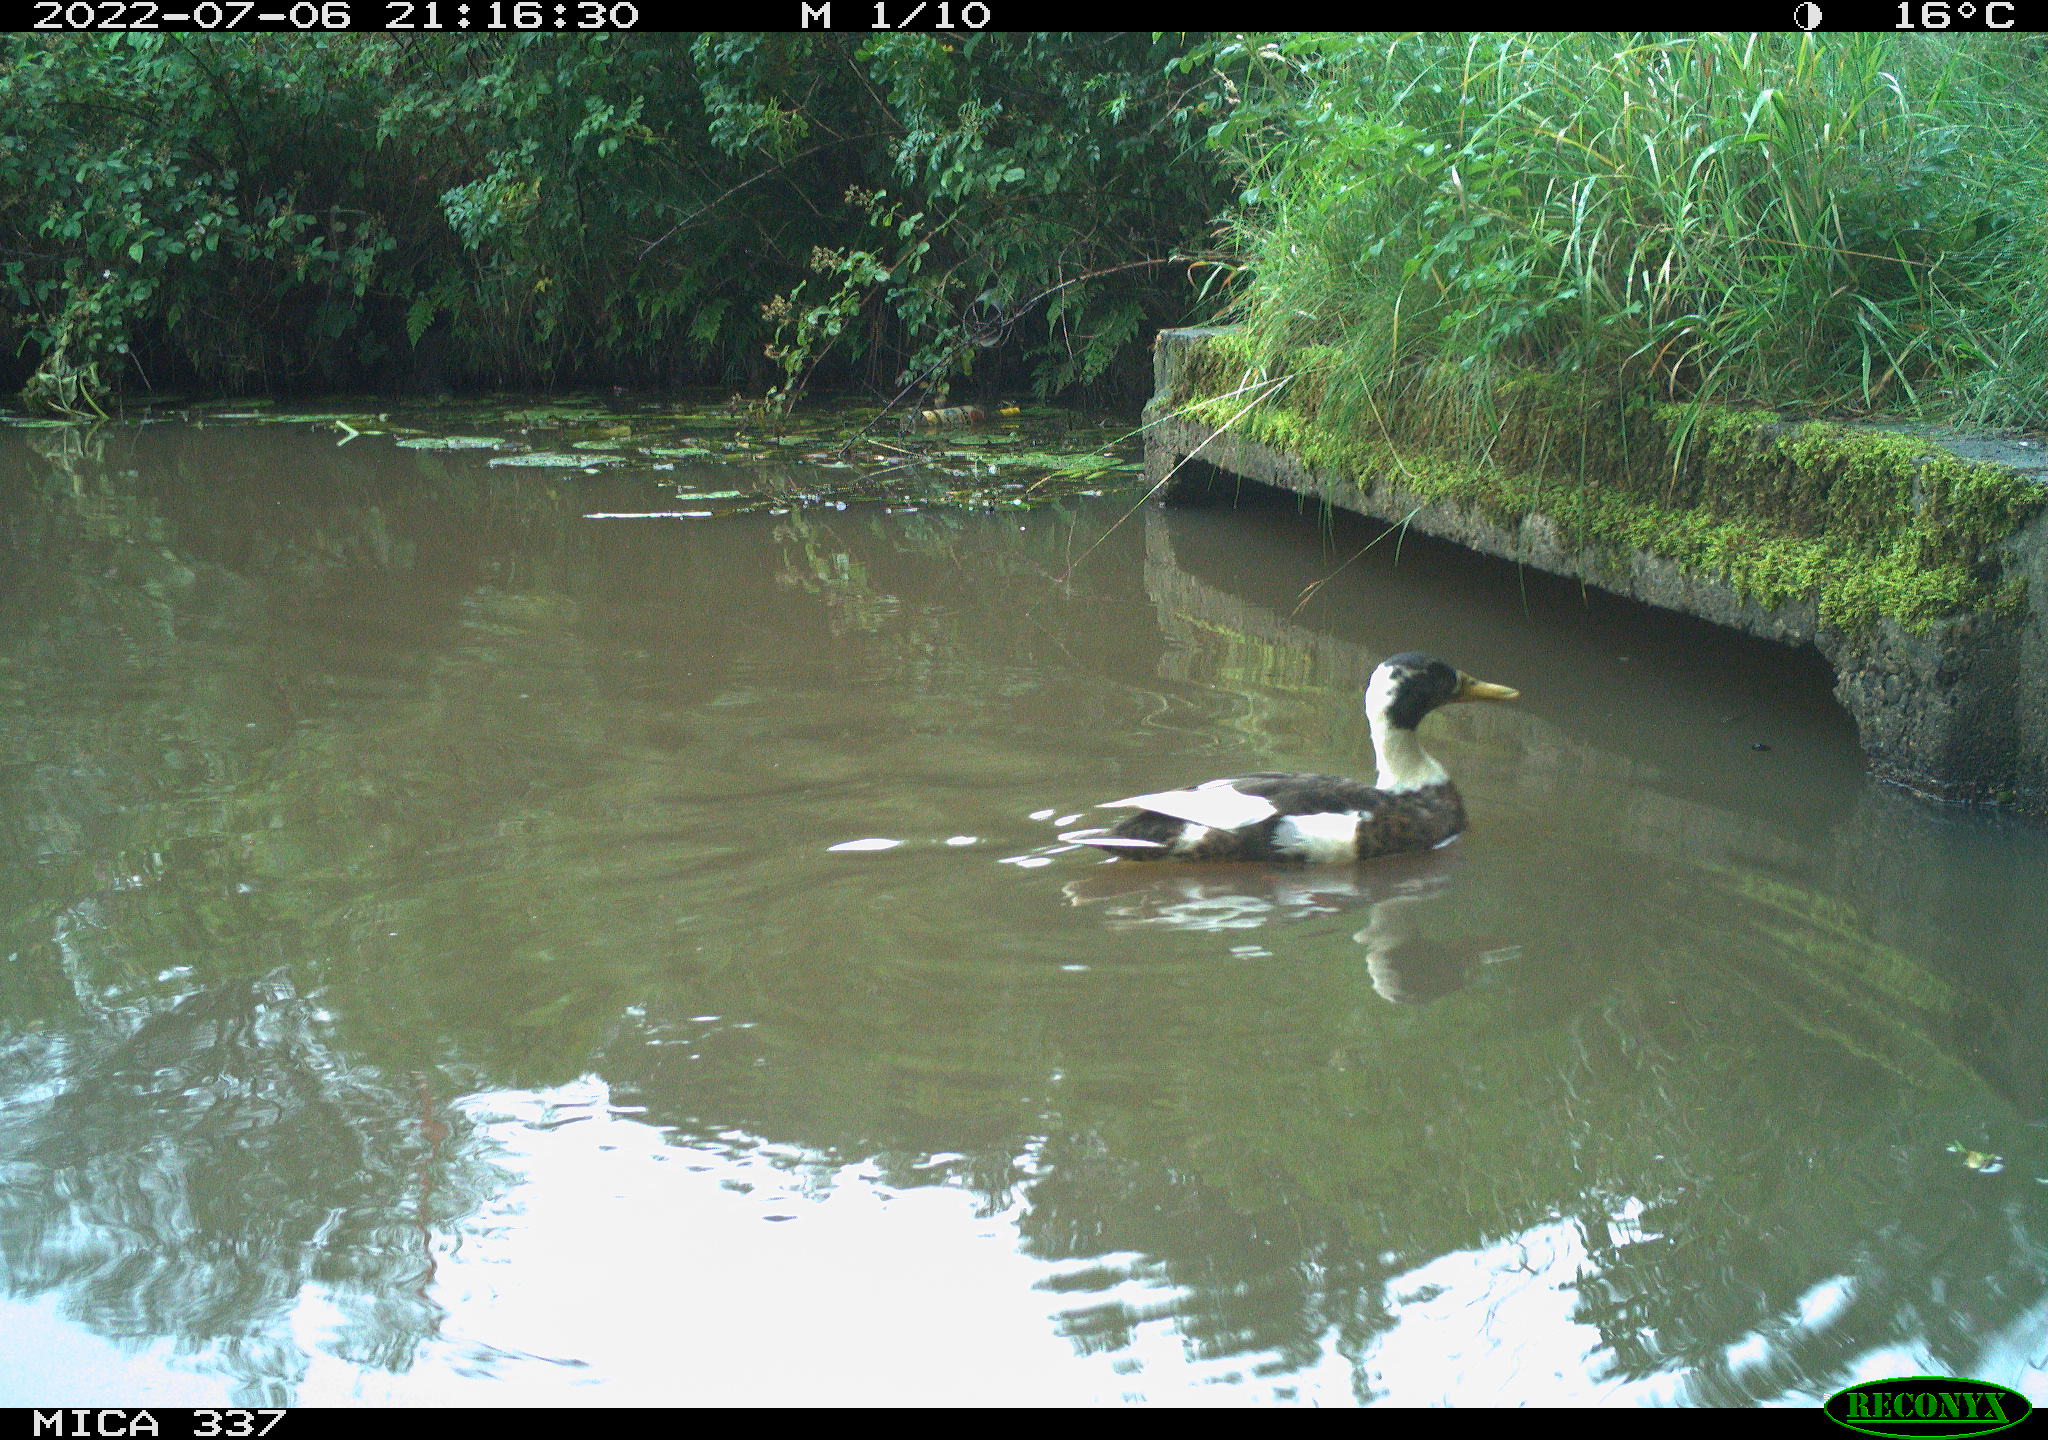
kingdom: Animalia
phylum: Chordata
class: Aves
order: Anseriformes
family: Anatidae
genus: Anas
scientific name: Anas platyrhynchos
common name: Mallard
